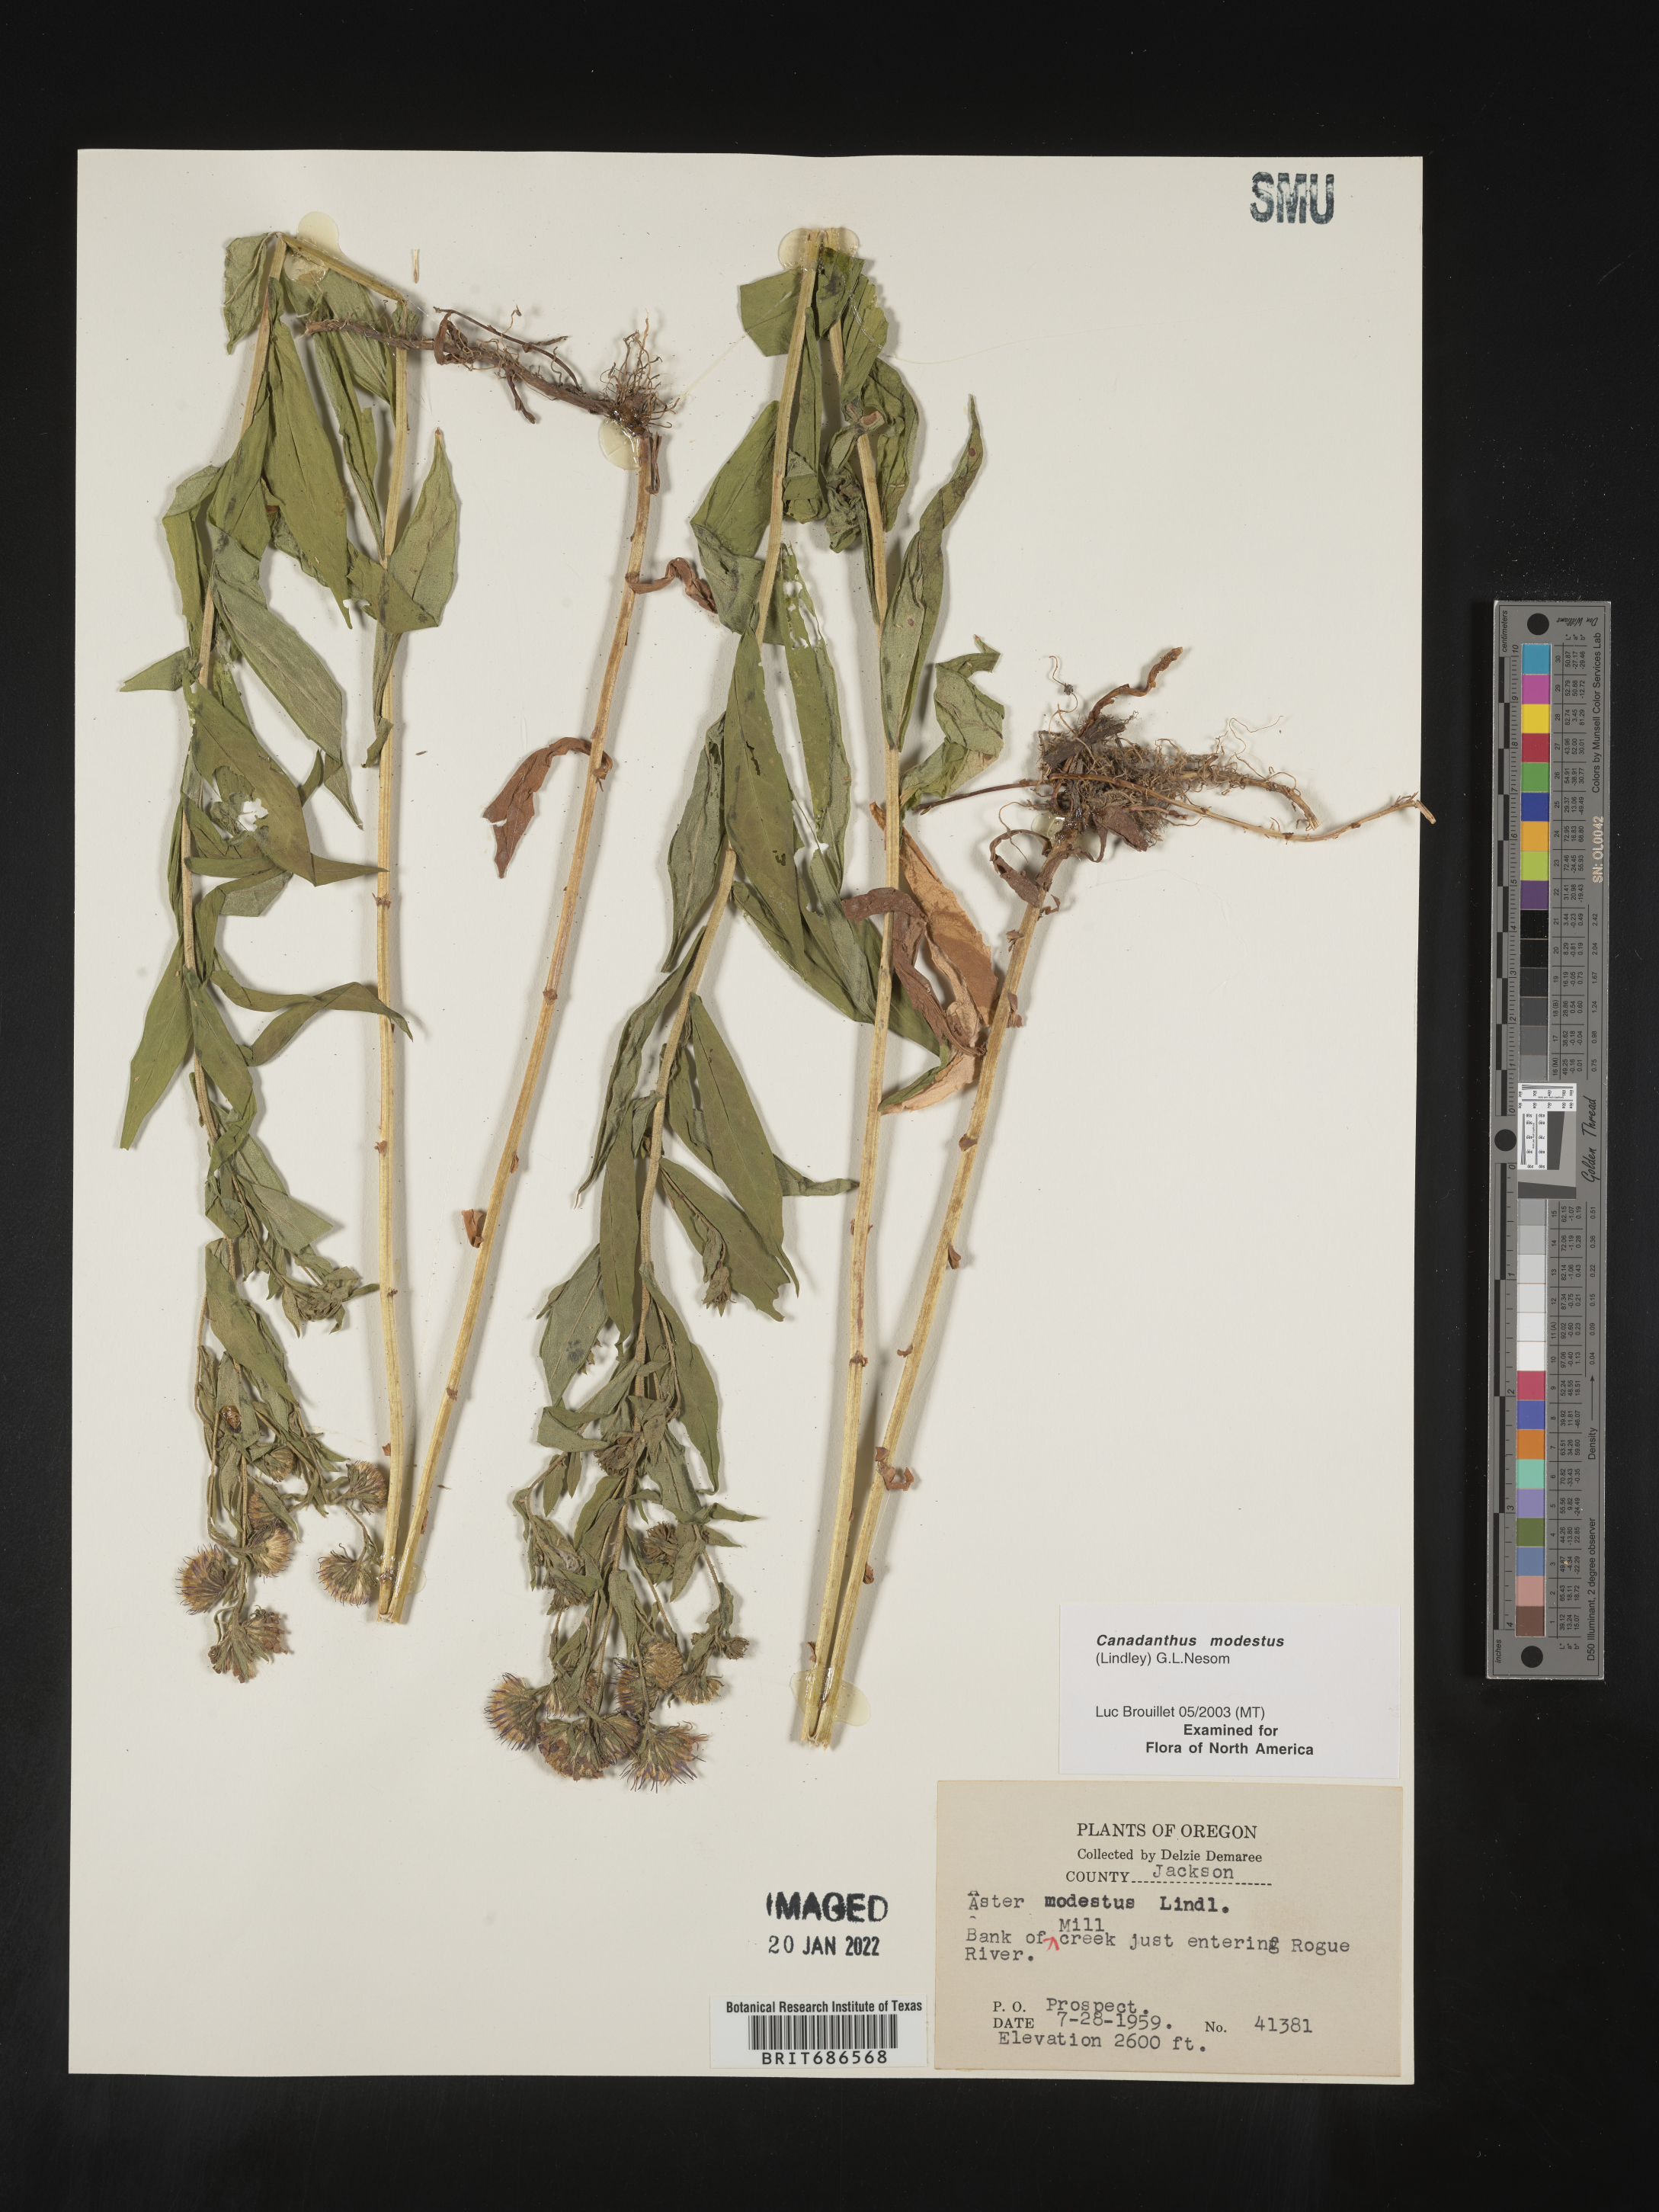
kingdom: Plantae
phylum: Tracheophyta
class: Magnoliopsida
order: Asterales
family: Asteraceae
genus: Canadanthus
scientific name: Canadanthus modestus
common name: Great northern aster
